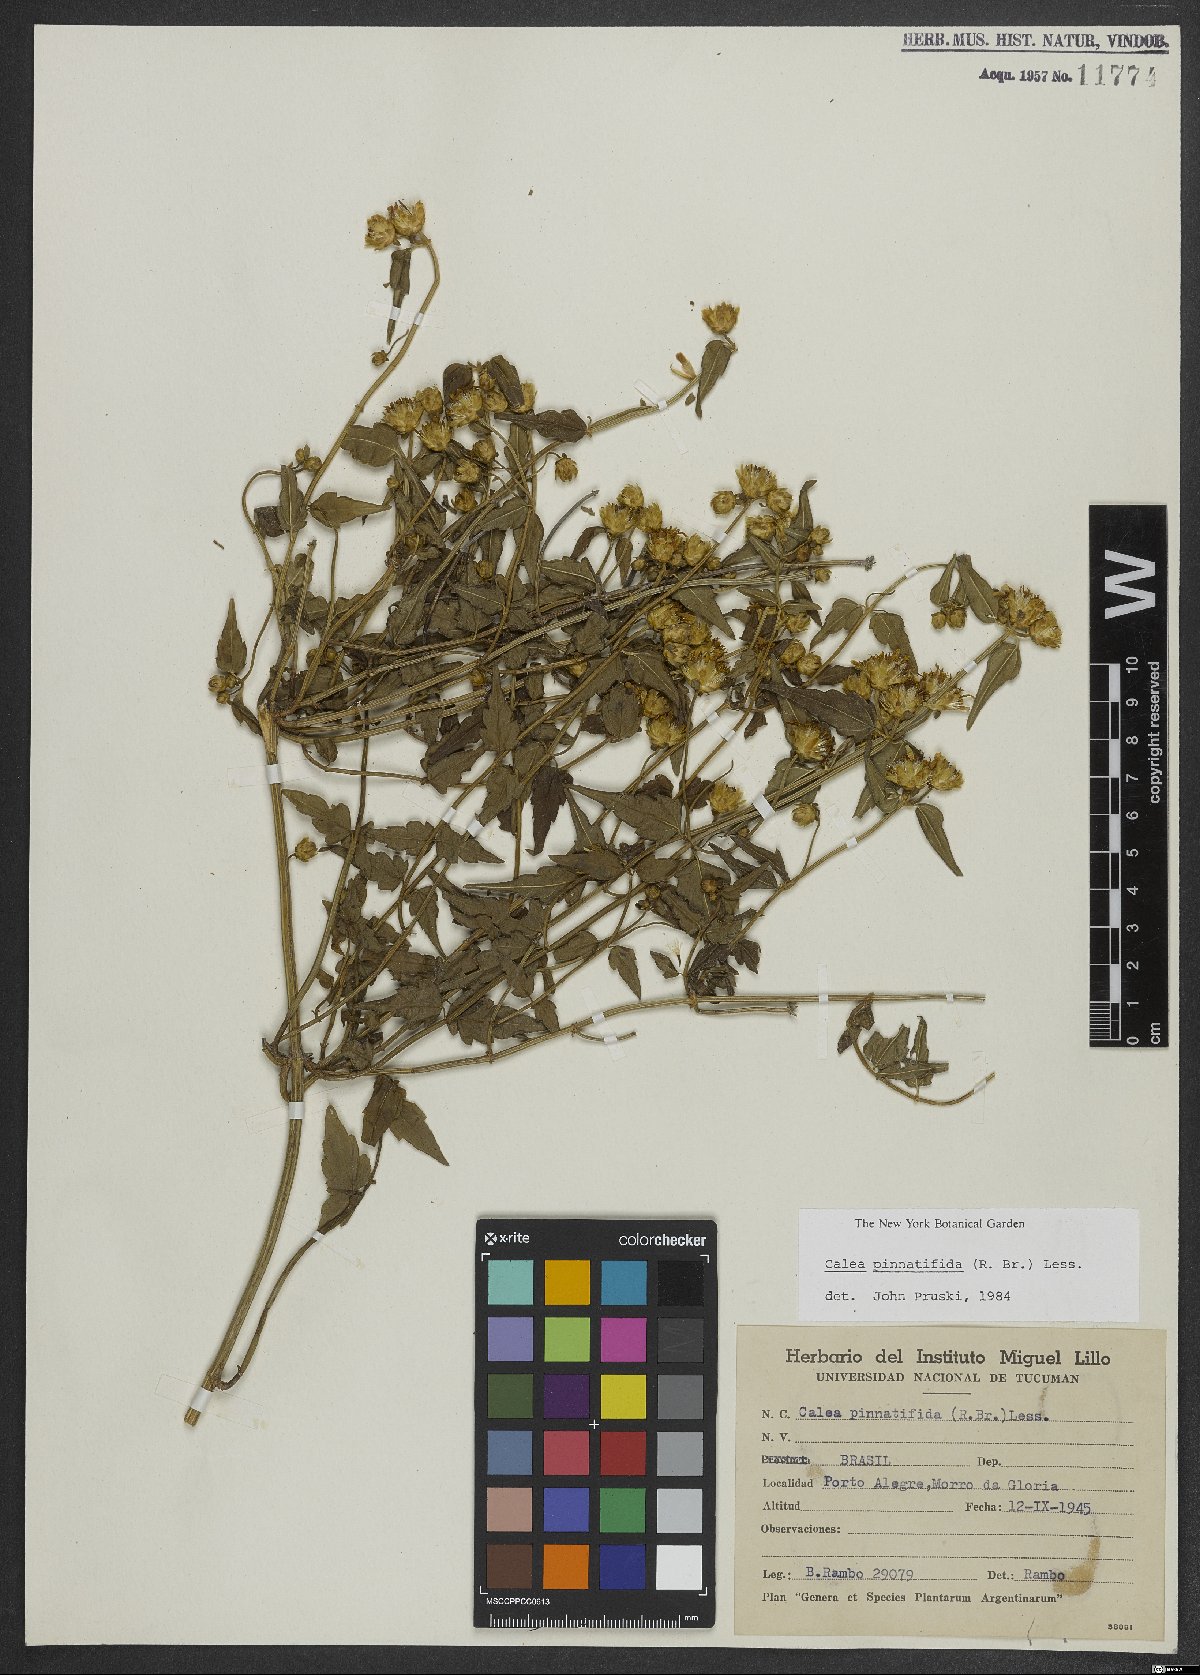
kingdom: Plantae
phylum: Tracheophyta
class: Magnoliopsida
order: Asterales
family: Asteraceae
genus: Calea
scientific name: Calea pinnatifida
